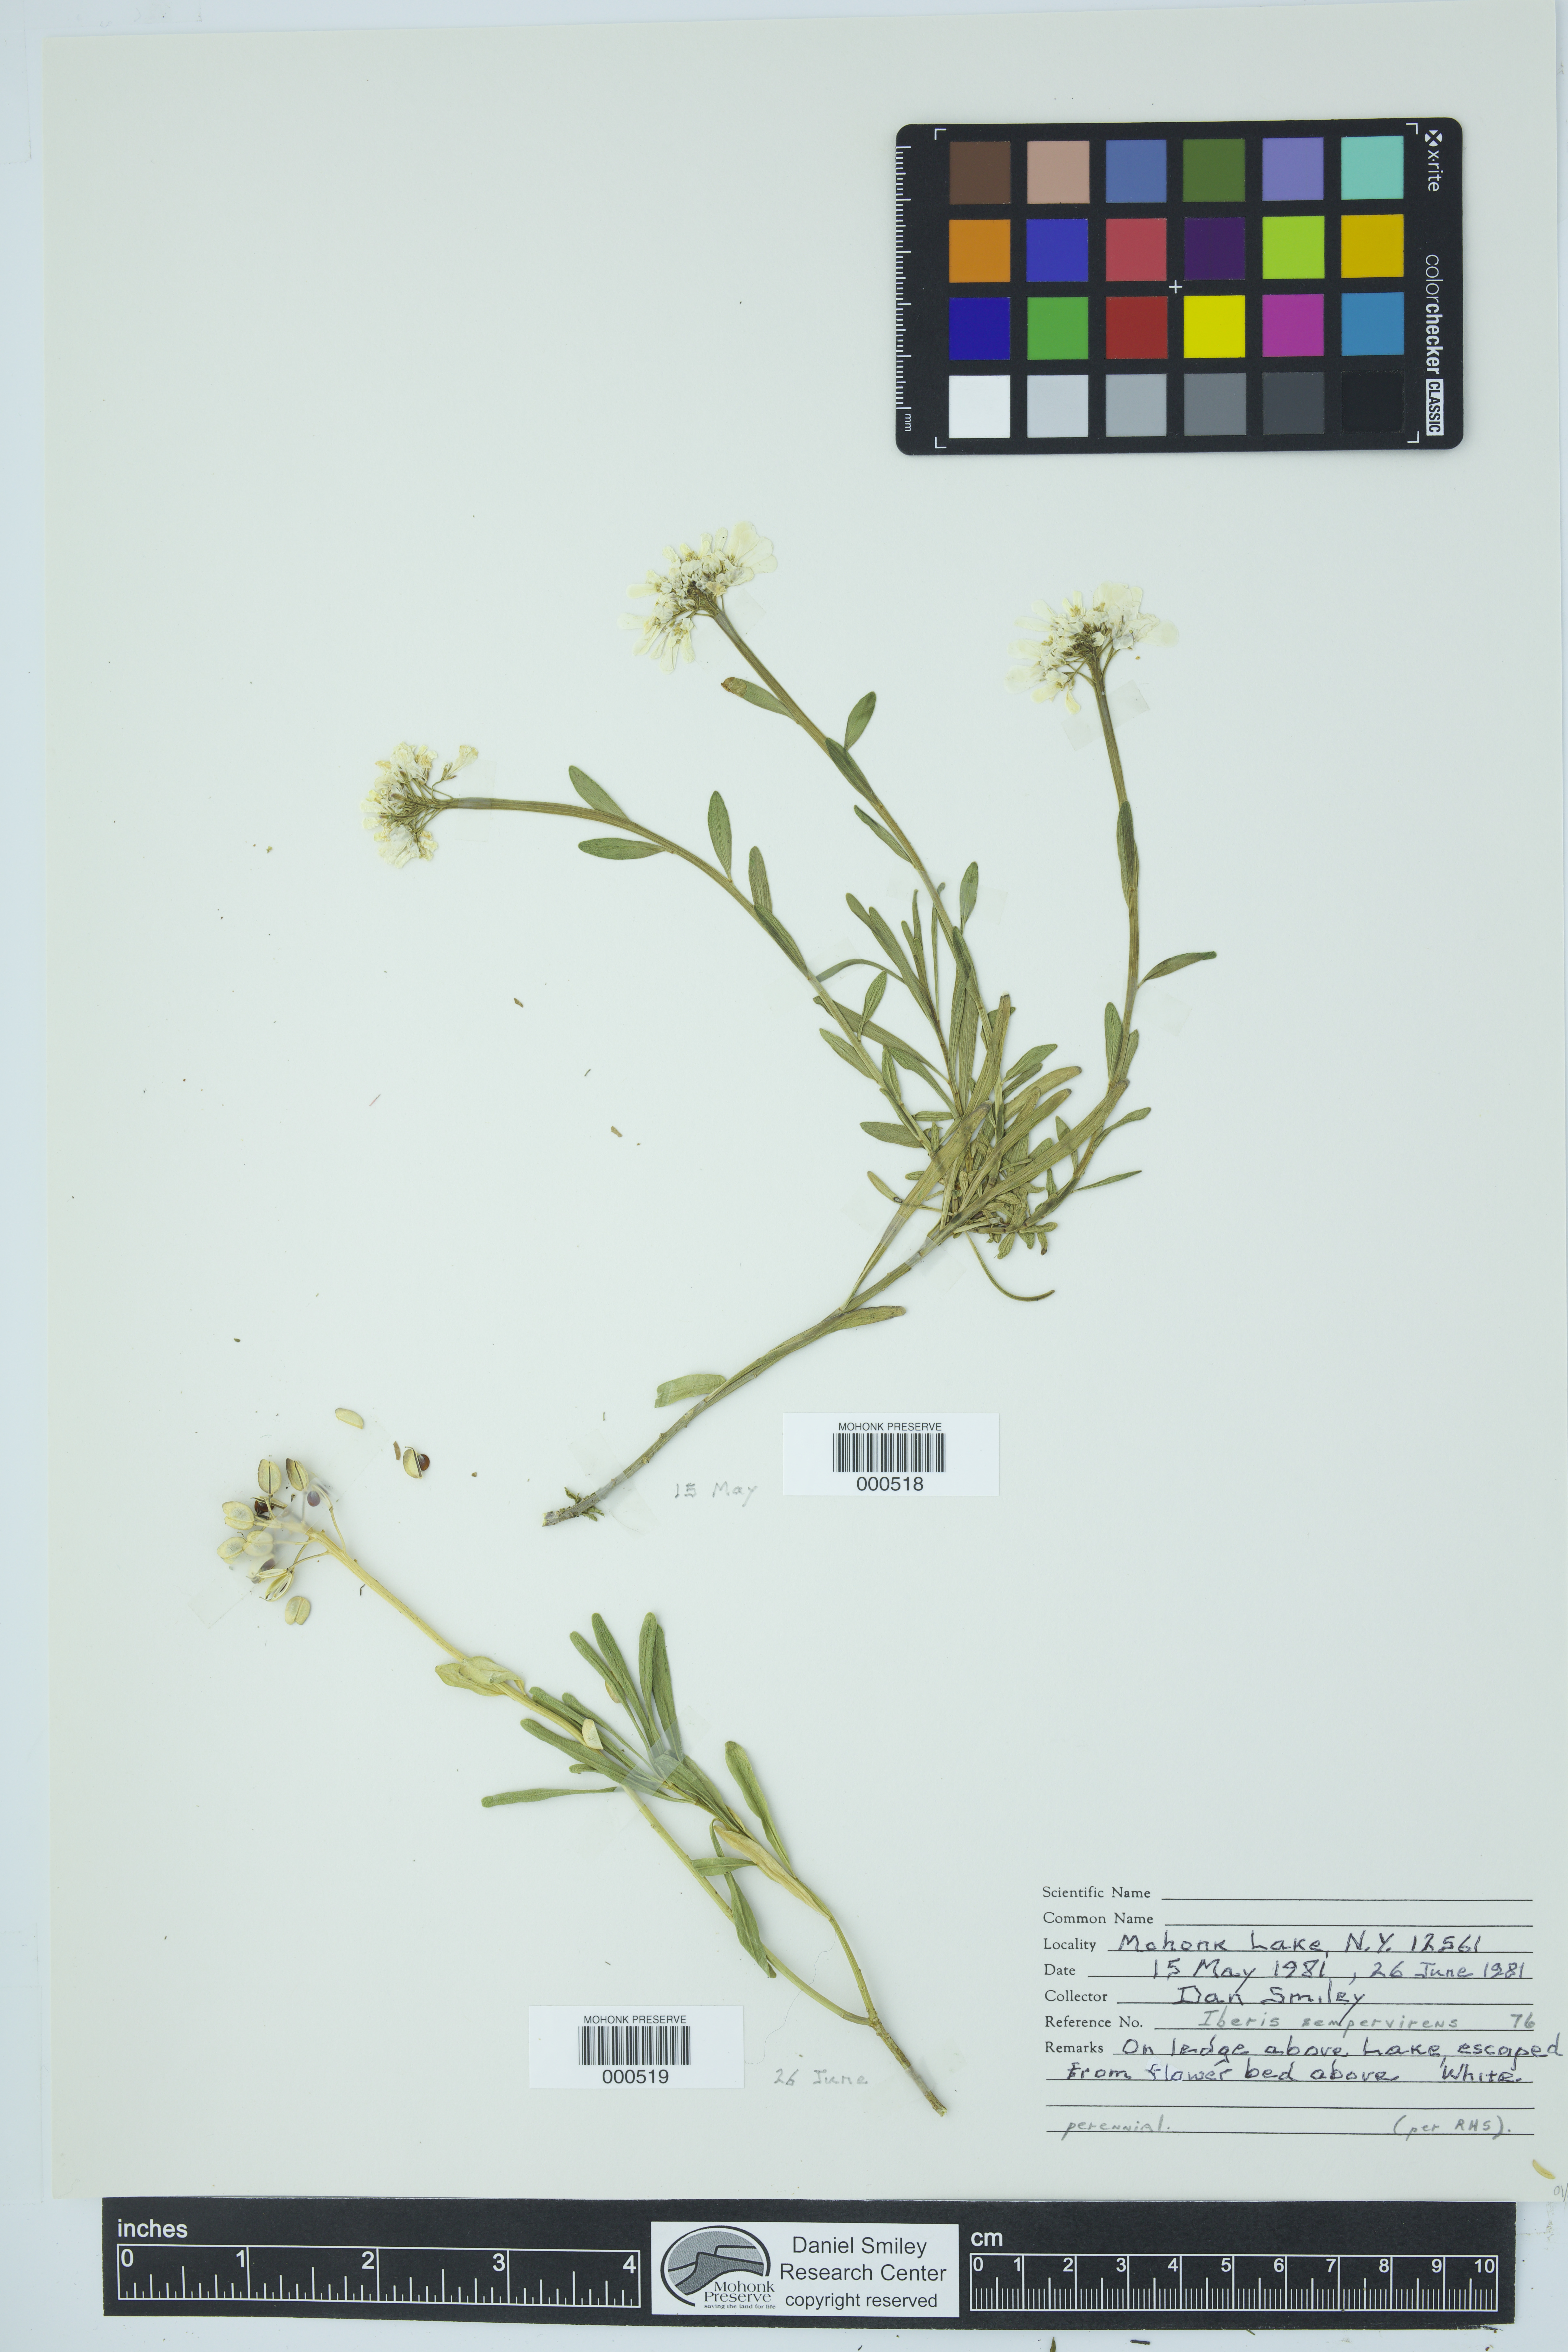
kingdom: Plantae
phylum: Tracheophyta
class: Magnoliopsida
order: Brassicales
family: Brassicaceae
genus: Iberis
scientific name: Iberis sempervirens
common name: Evergreen candytuft
